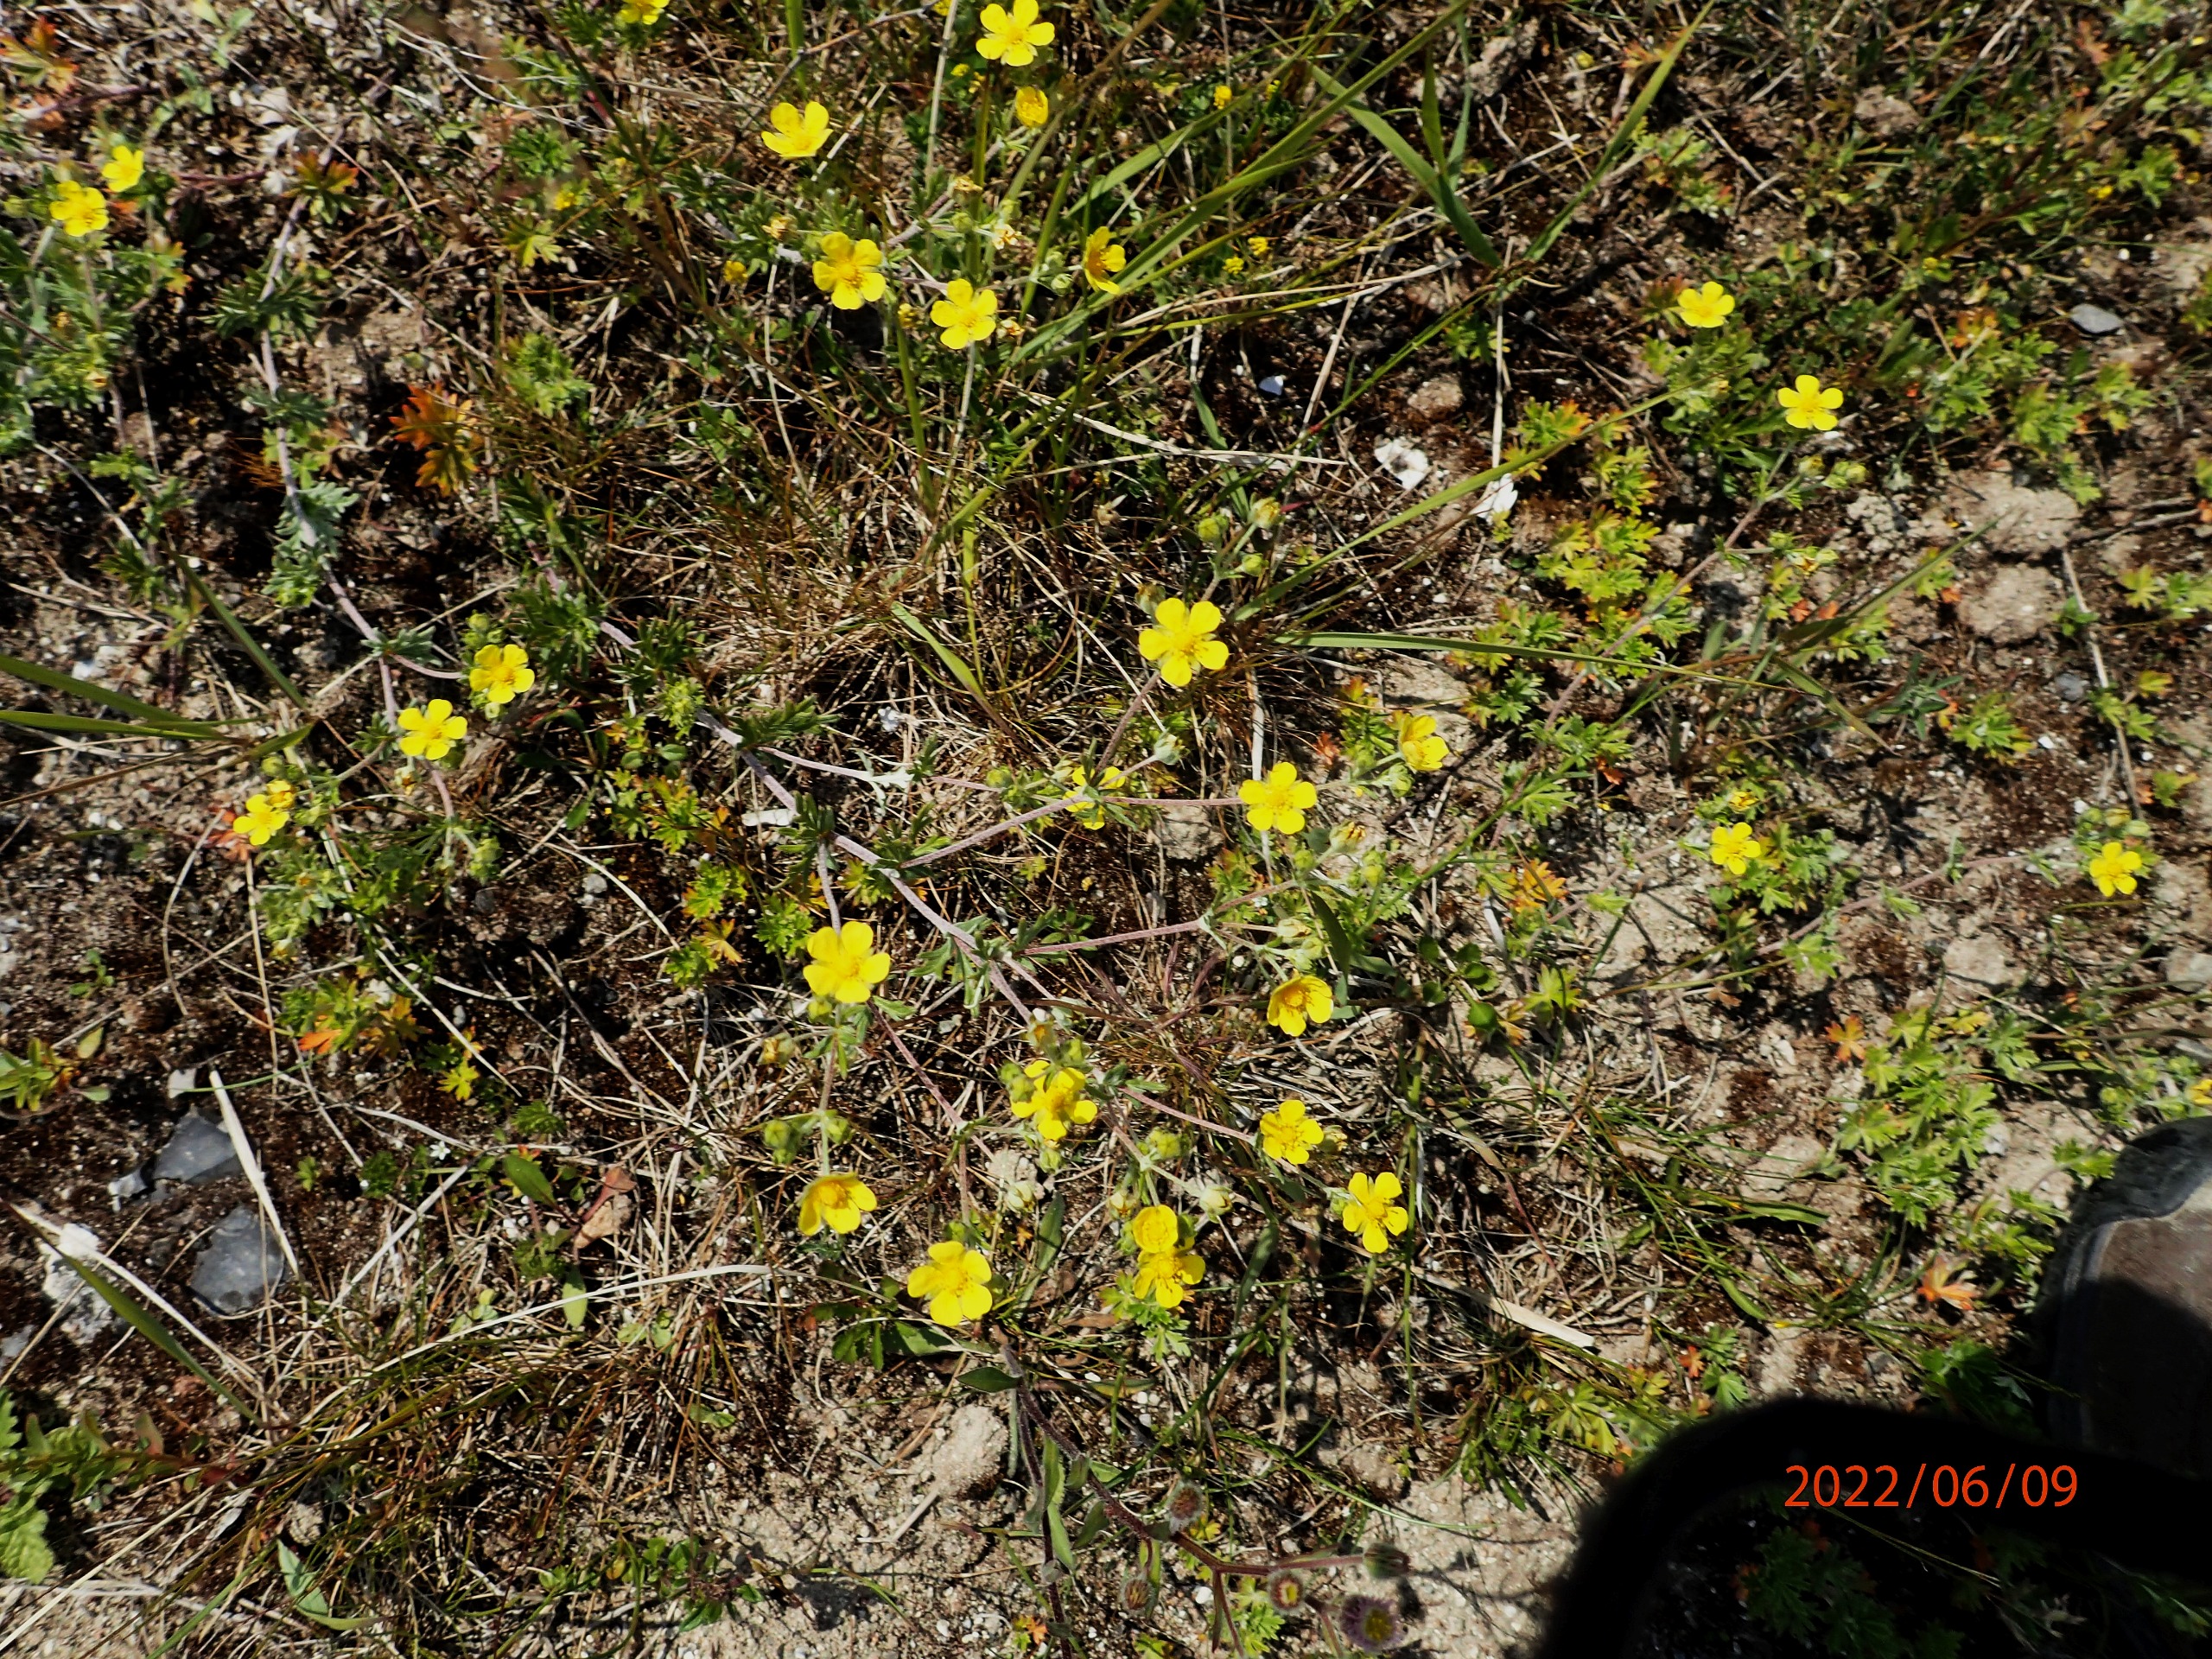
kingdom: Plantae
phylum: Tracheophyta
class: Magnoliopsida
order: Rosales
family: Rosaceae
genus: Potentilla
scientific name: Potentilla argentea
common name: Sølv-potentil
